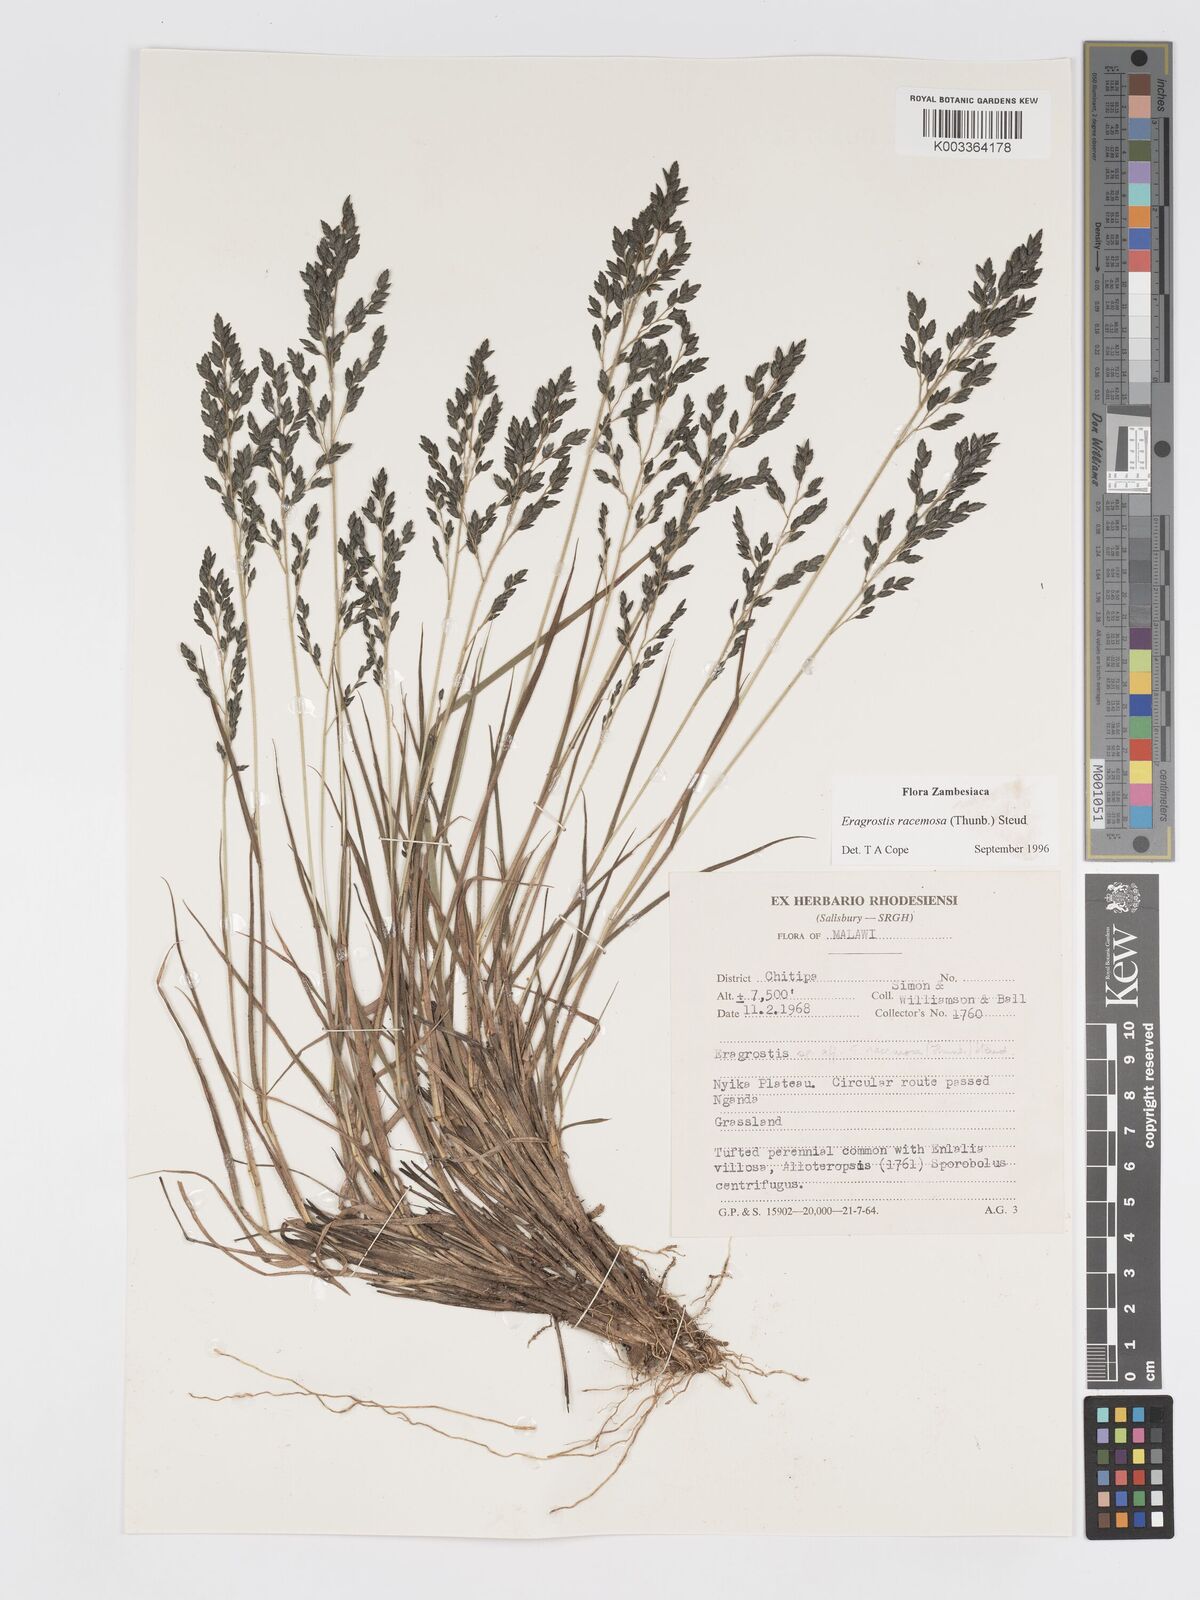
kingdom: Plantae
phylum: Tracheophyta
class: Liliopsida
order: Poales
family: Poaceae
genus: Eragrostis
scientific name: Eragrostis racemosa
